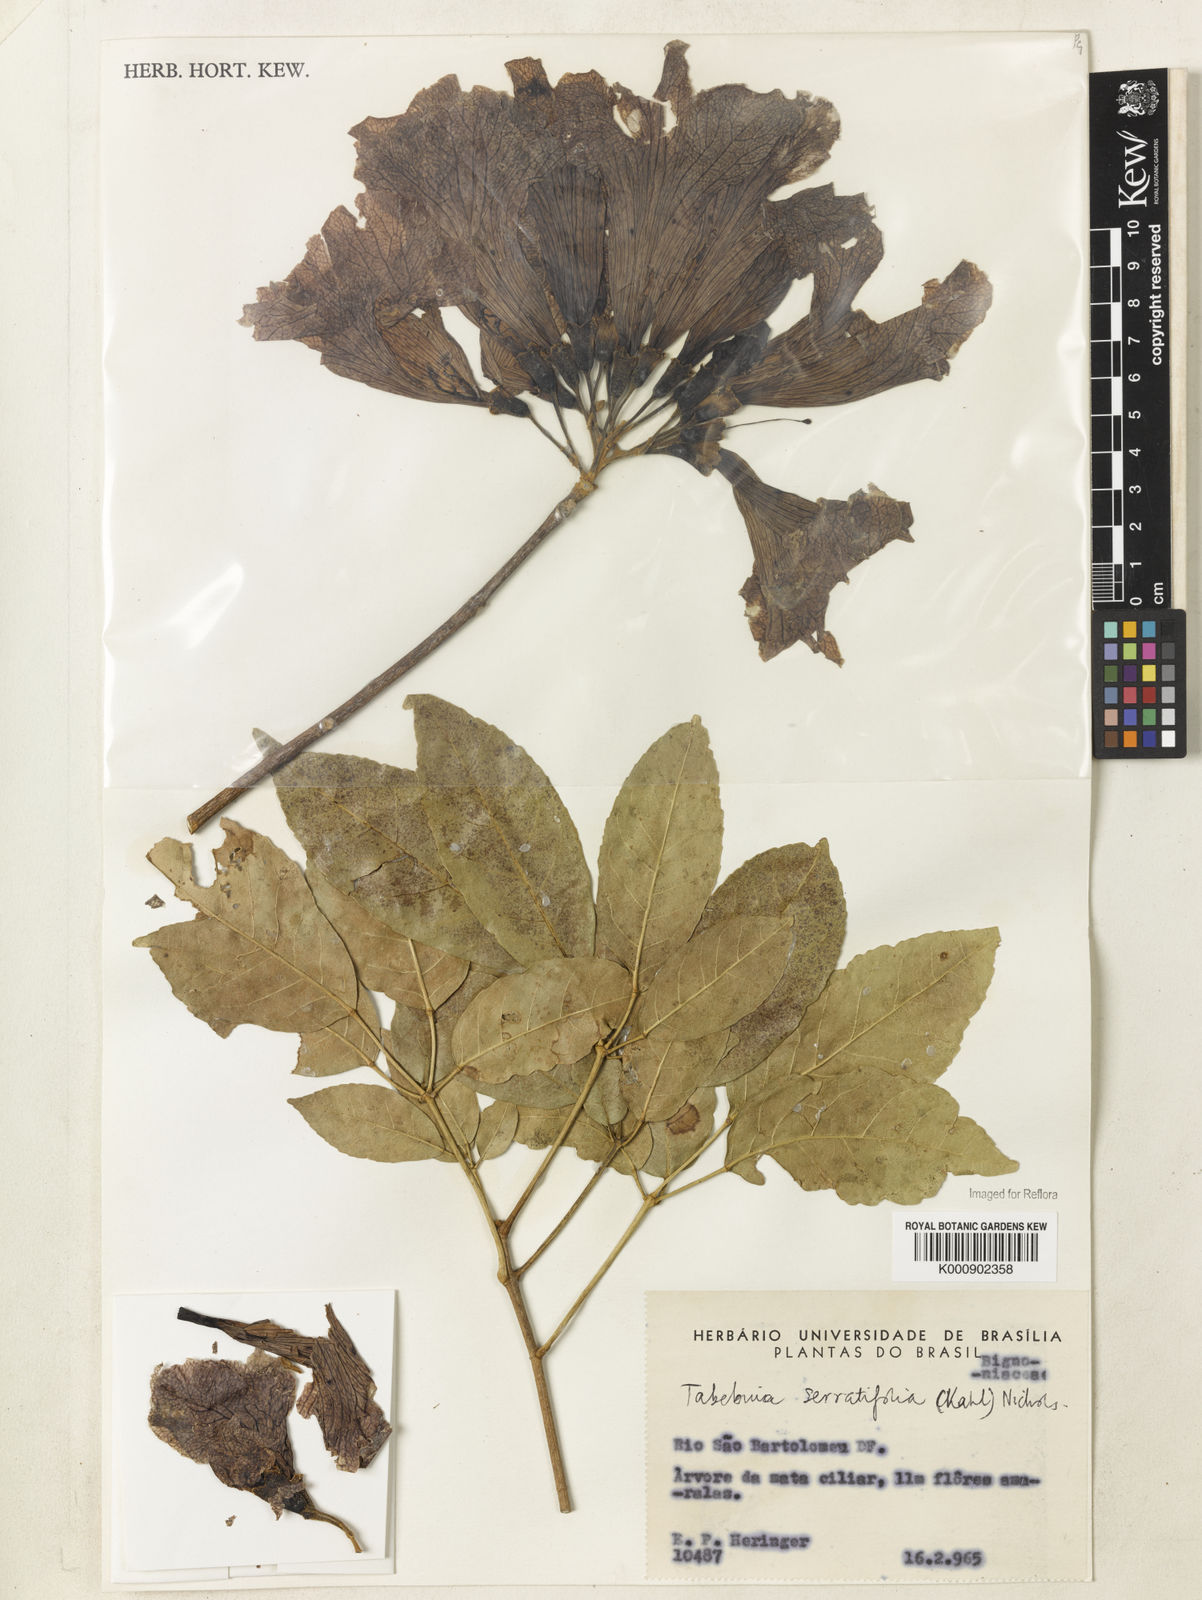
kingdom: Plantae
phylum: Tracheophyta
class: Magnoliopsida
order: Lamiales
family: Bignoniaceae
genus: Handroanthus
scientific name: Handroanthus serratifolius
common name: Yellow ipe
